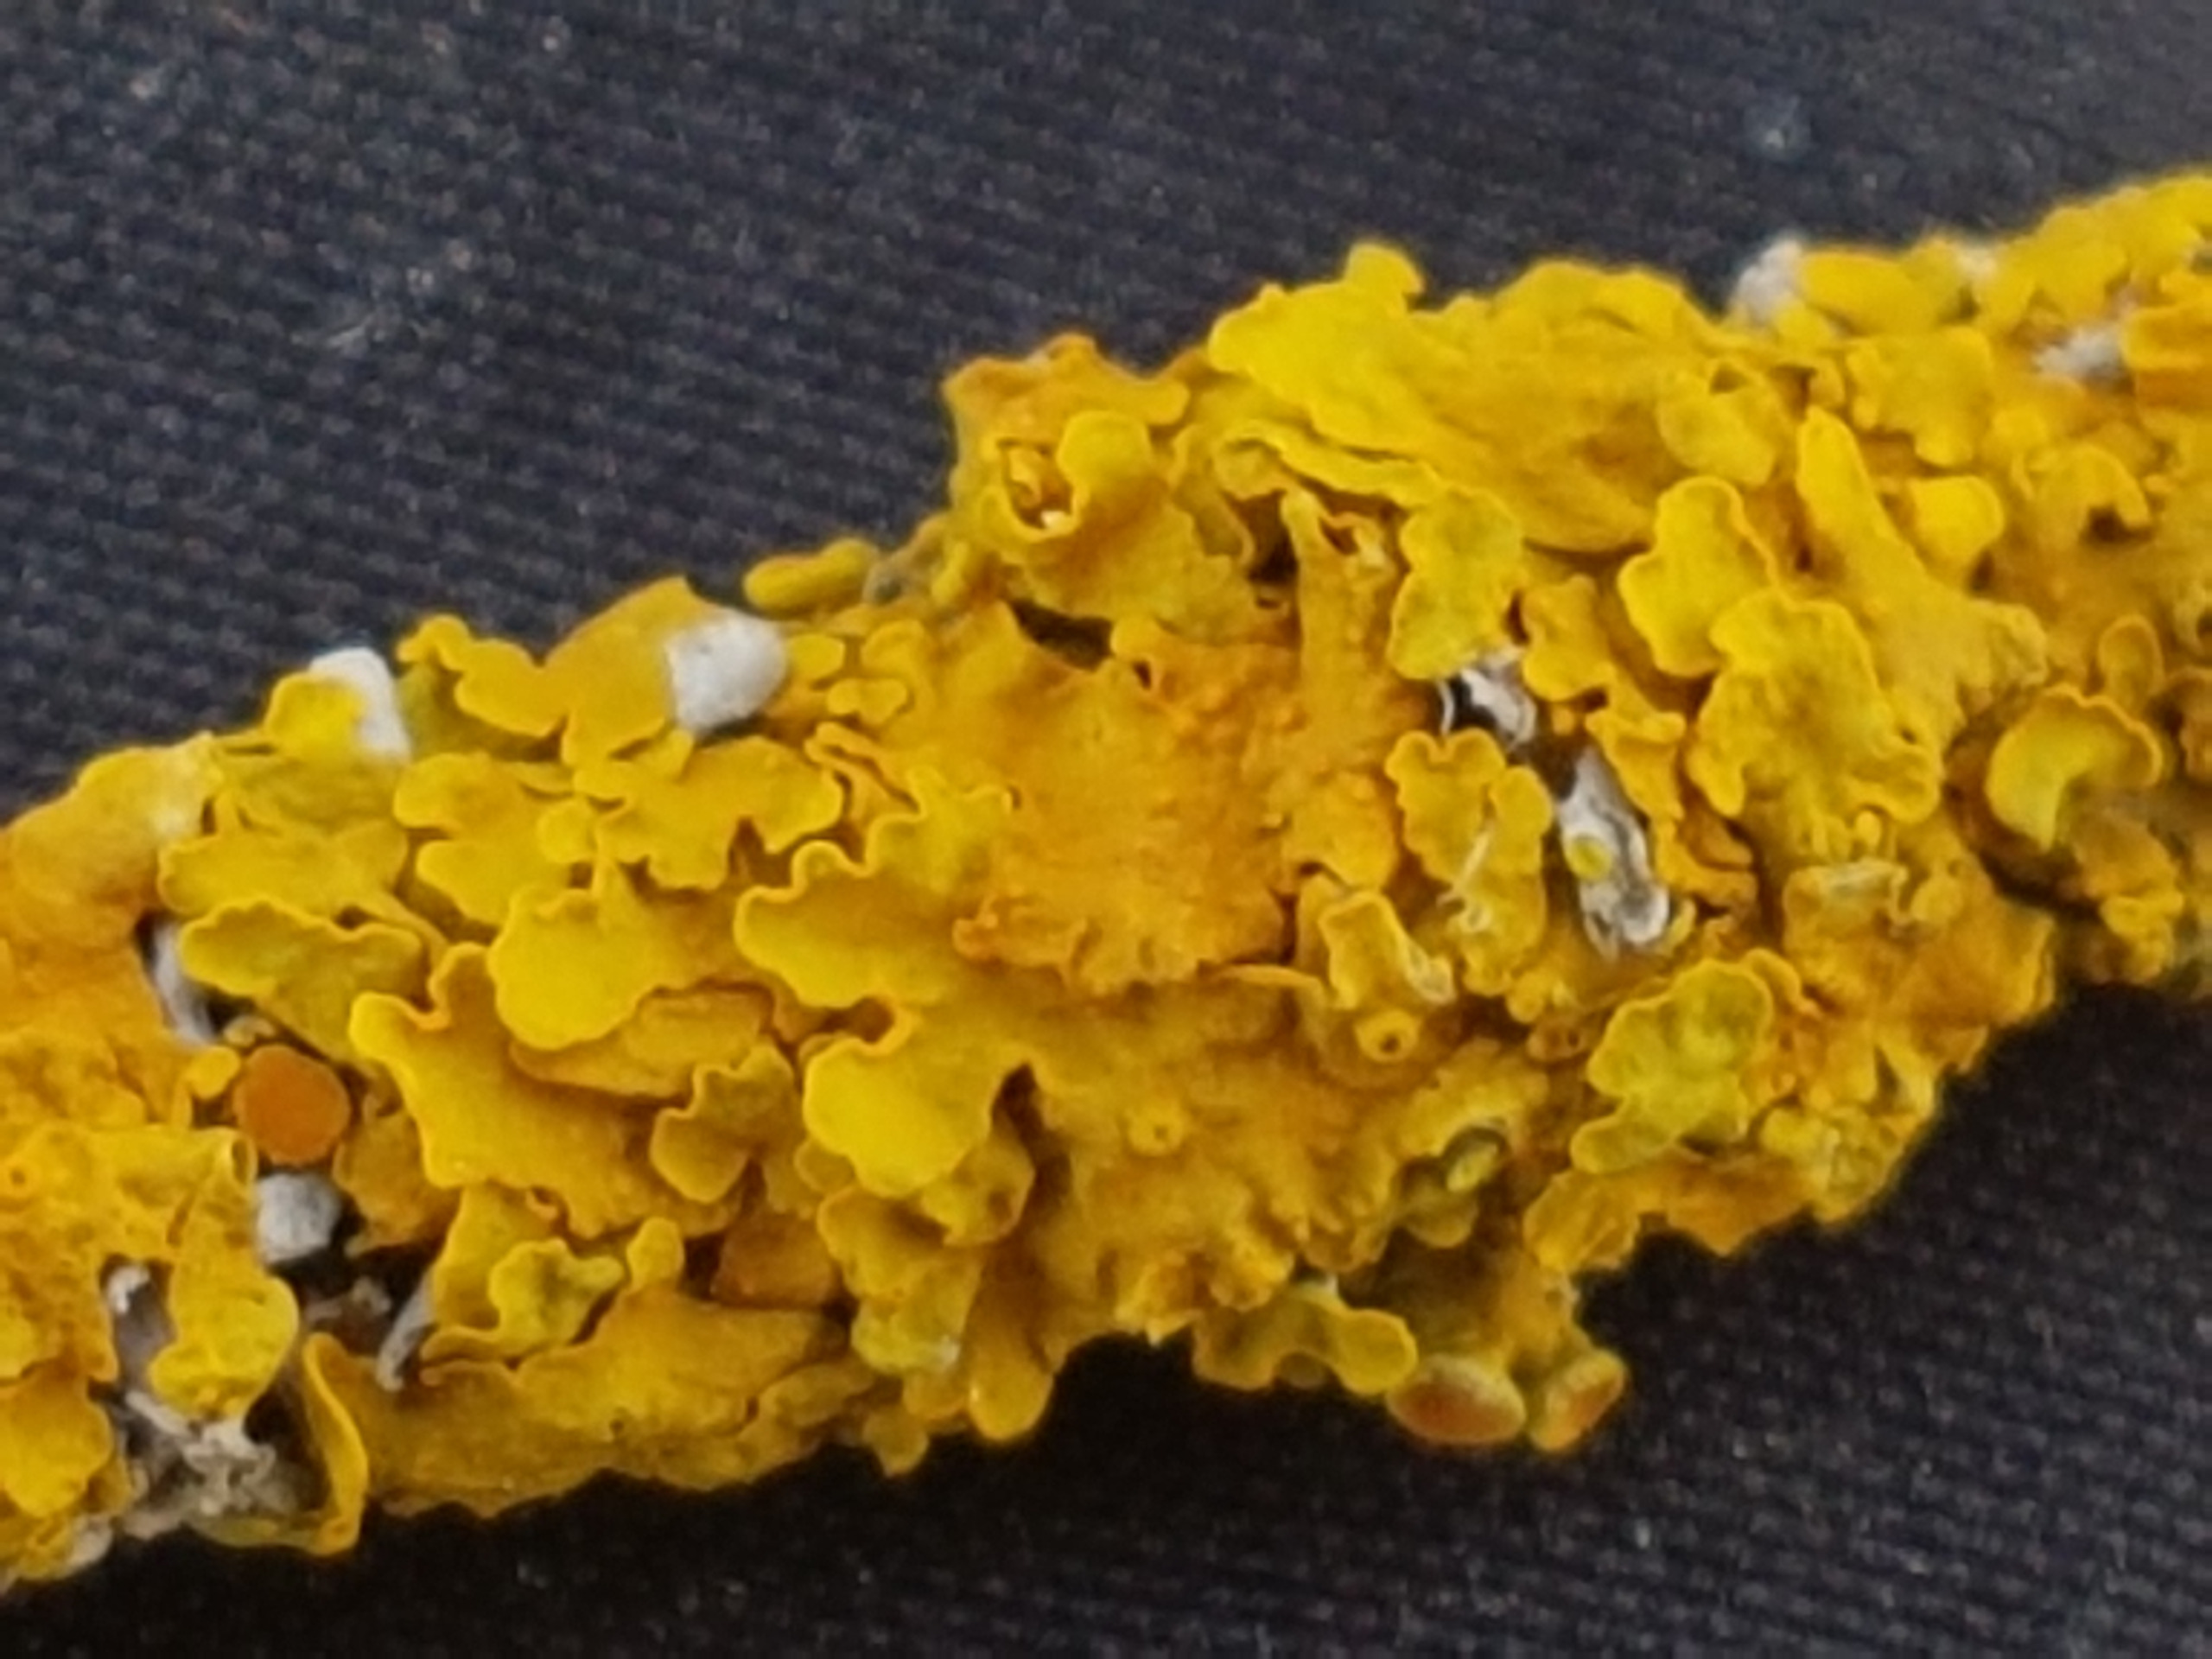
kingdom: Fungi
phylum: Ascomycota
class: Lecanoromycetes
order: Teloschistales
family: Teloschistaceae
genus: Xanthoria
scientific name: Xanthoria parietina
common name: Almindelig væggelav
